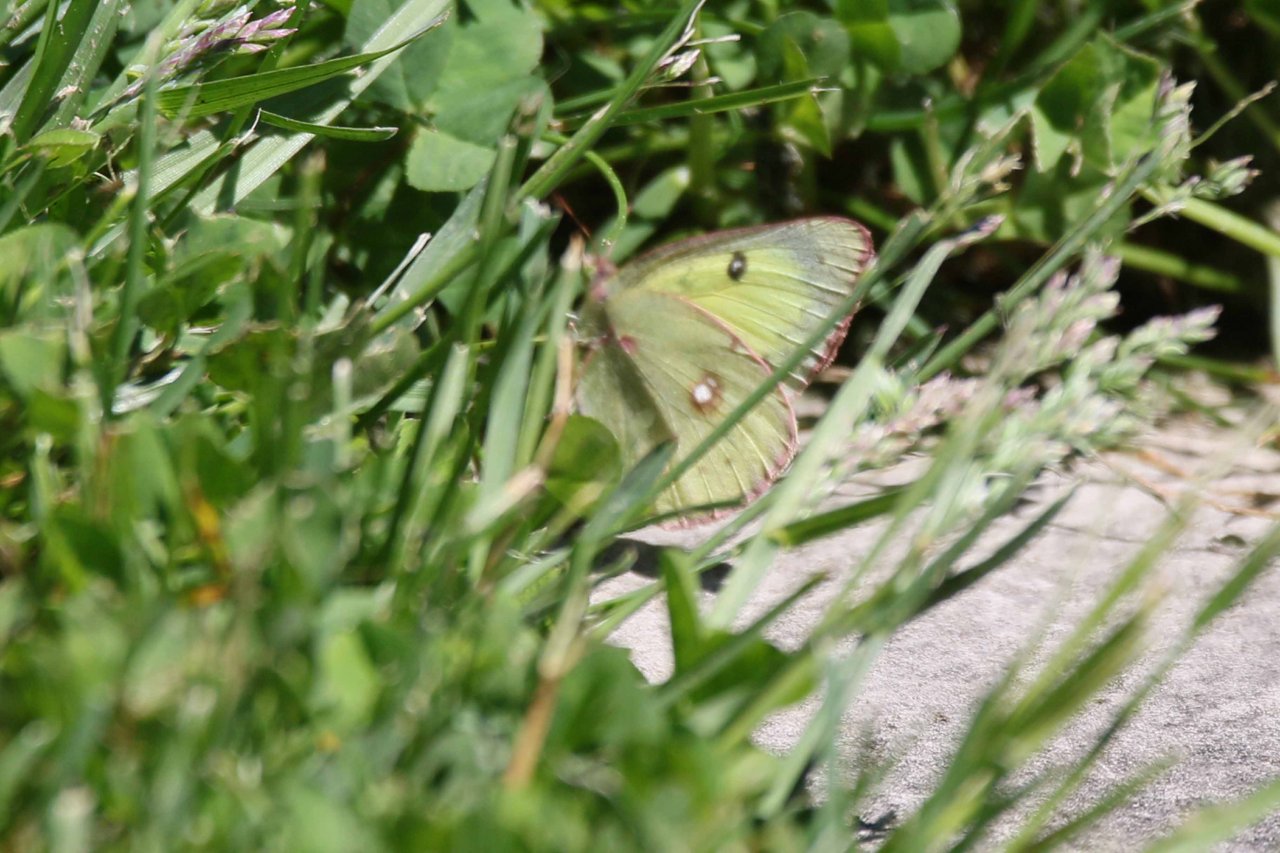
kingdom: Animalia
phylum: Arthropoda
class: Insecta
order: Lepidoptera
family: Pieridae
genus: Colias
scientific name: Colias philodice
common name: Clouded Sulphur
